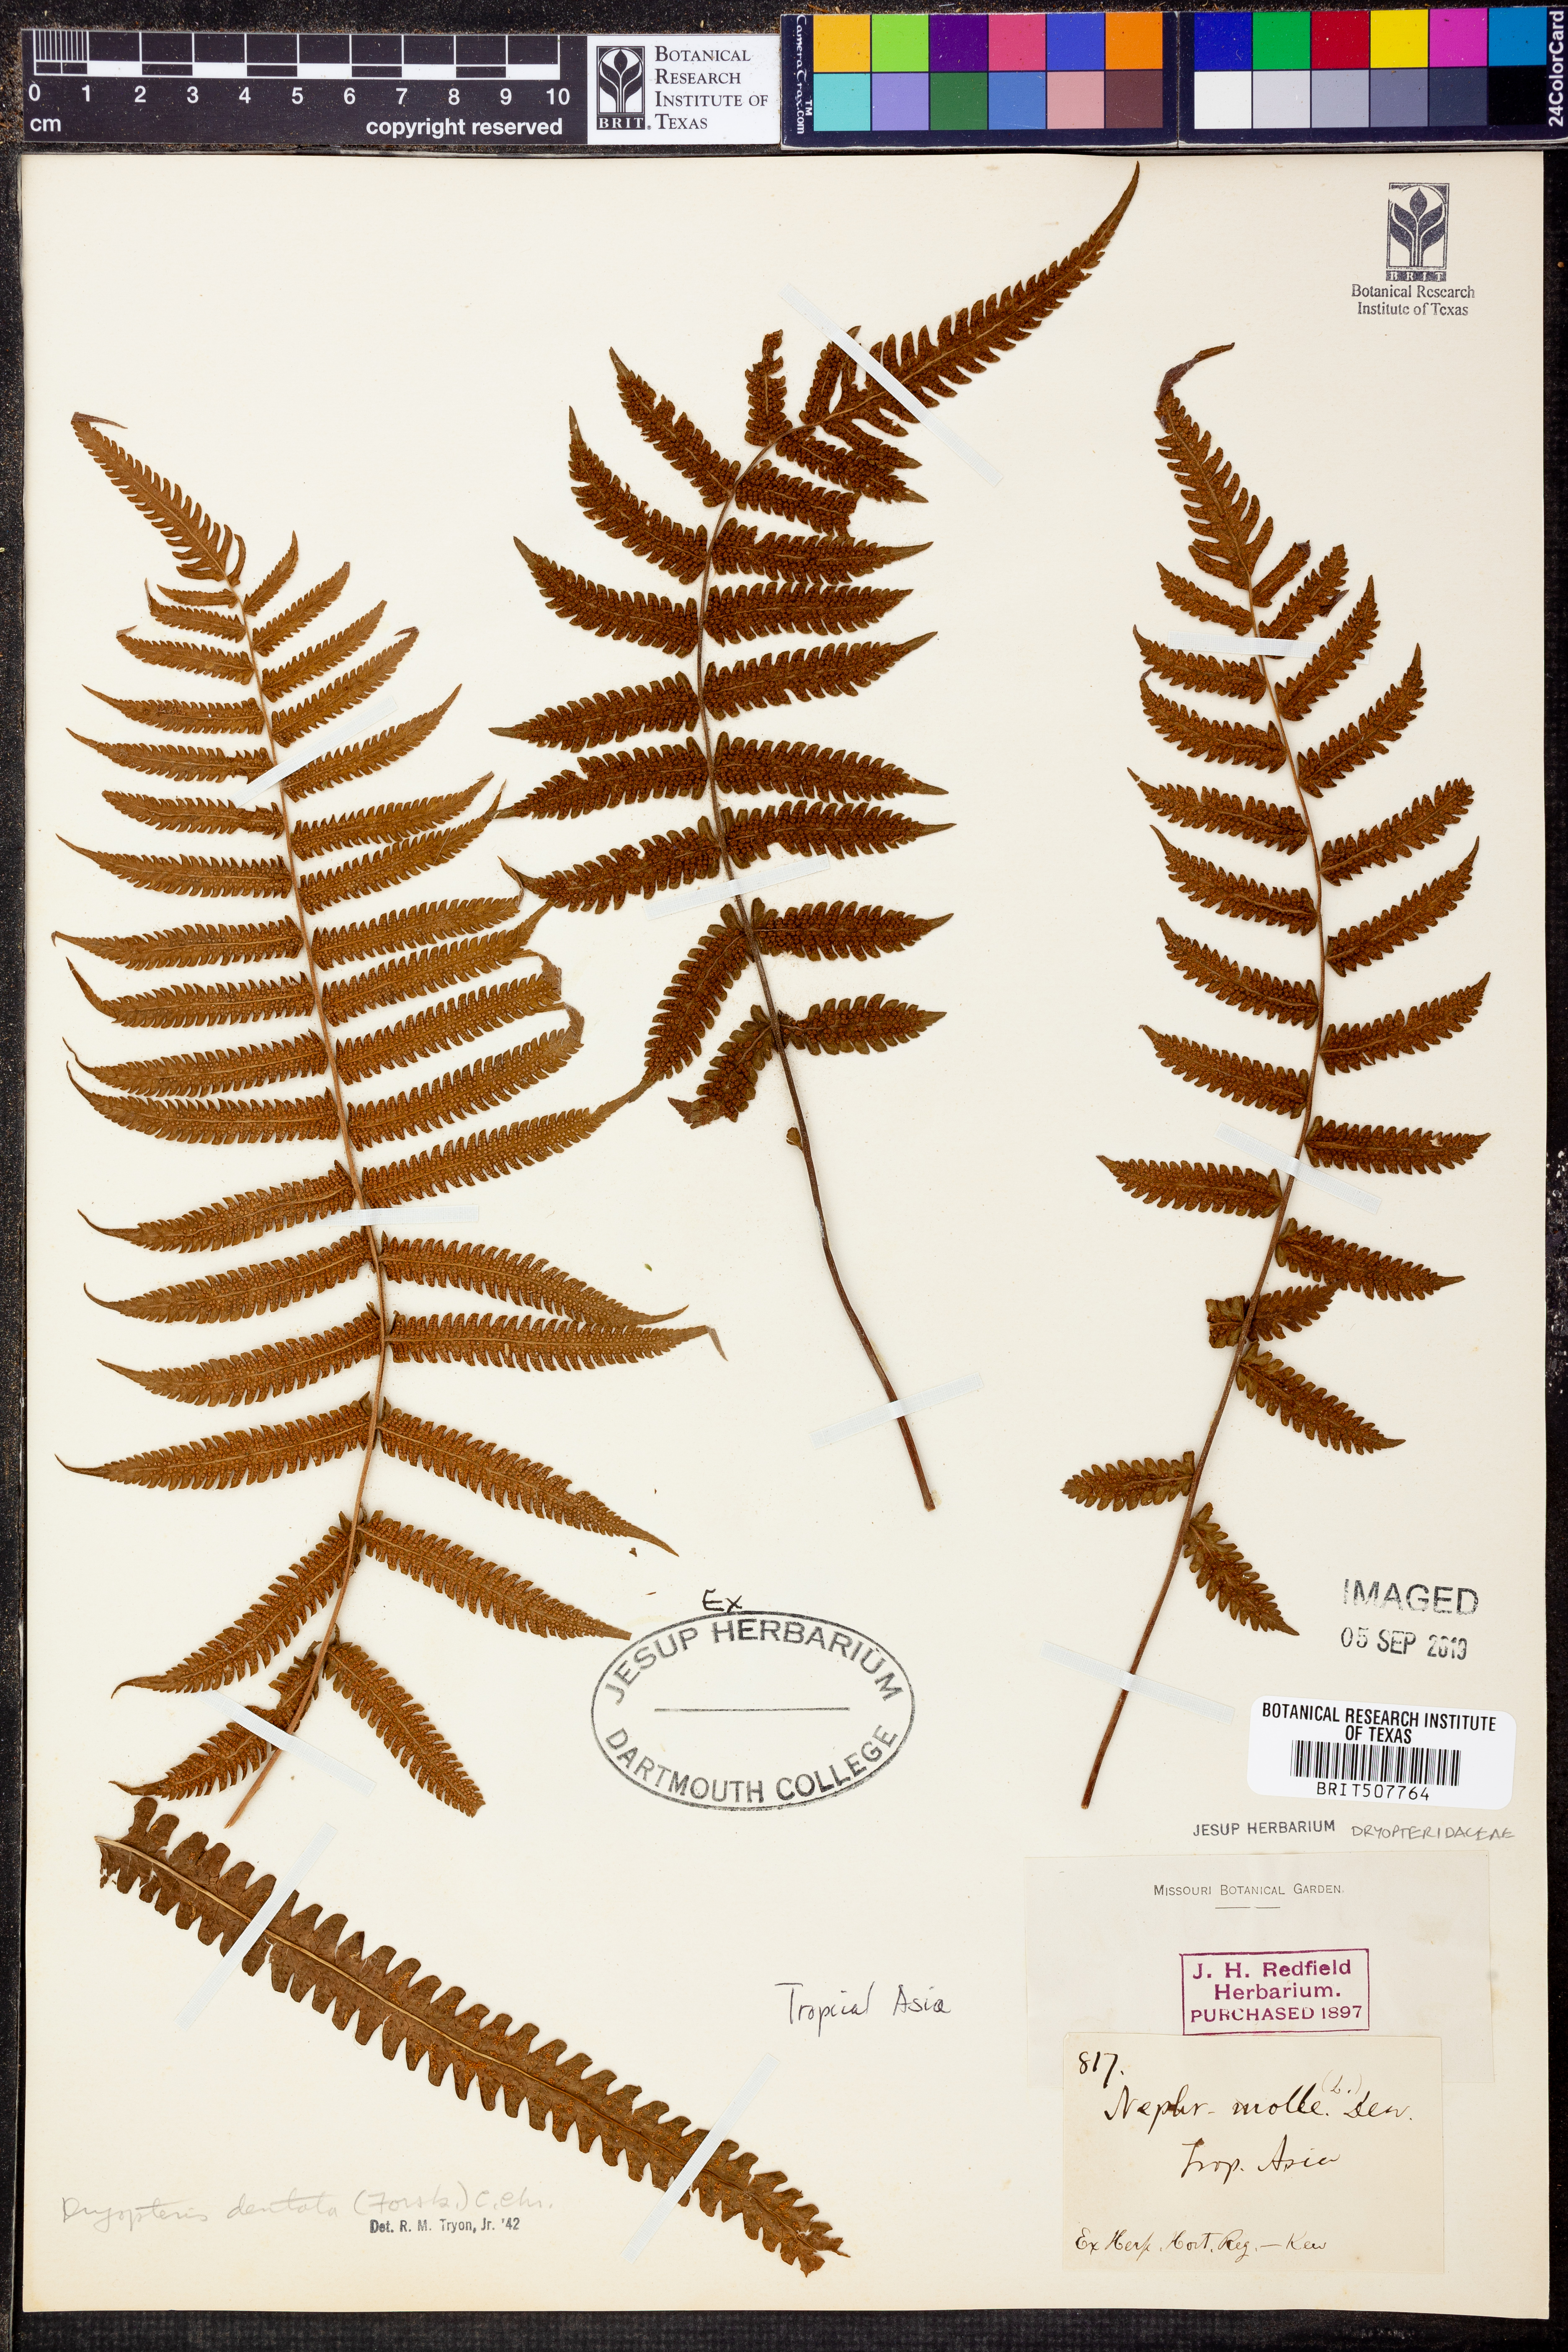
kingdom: Plantae
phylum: Tracheophyta
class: Polypodiopsida
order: Polypodiales
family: Thelypteridaceae
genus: Christella
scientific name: Christella dentata
